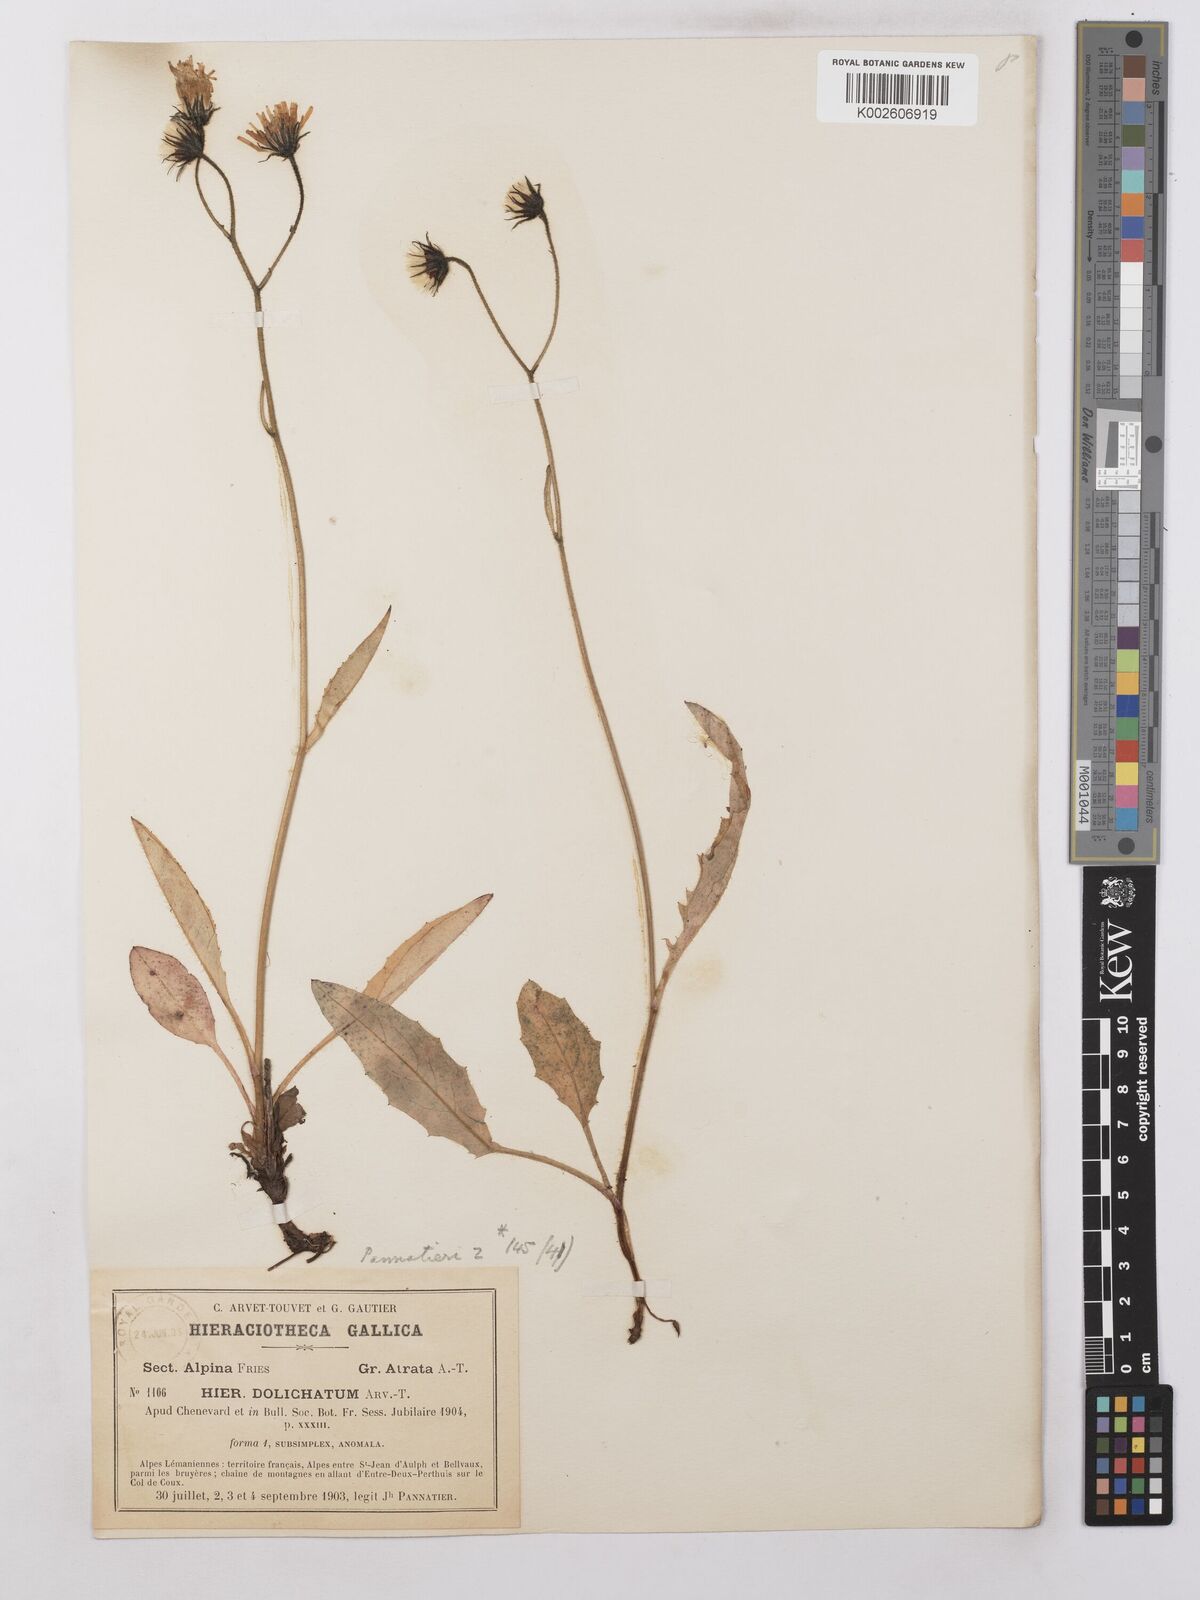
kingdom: Plantae
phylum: Tracheophyta
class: Magnoliopsida
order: Asterales
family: Asteraceae
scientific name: Asteraceae
